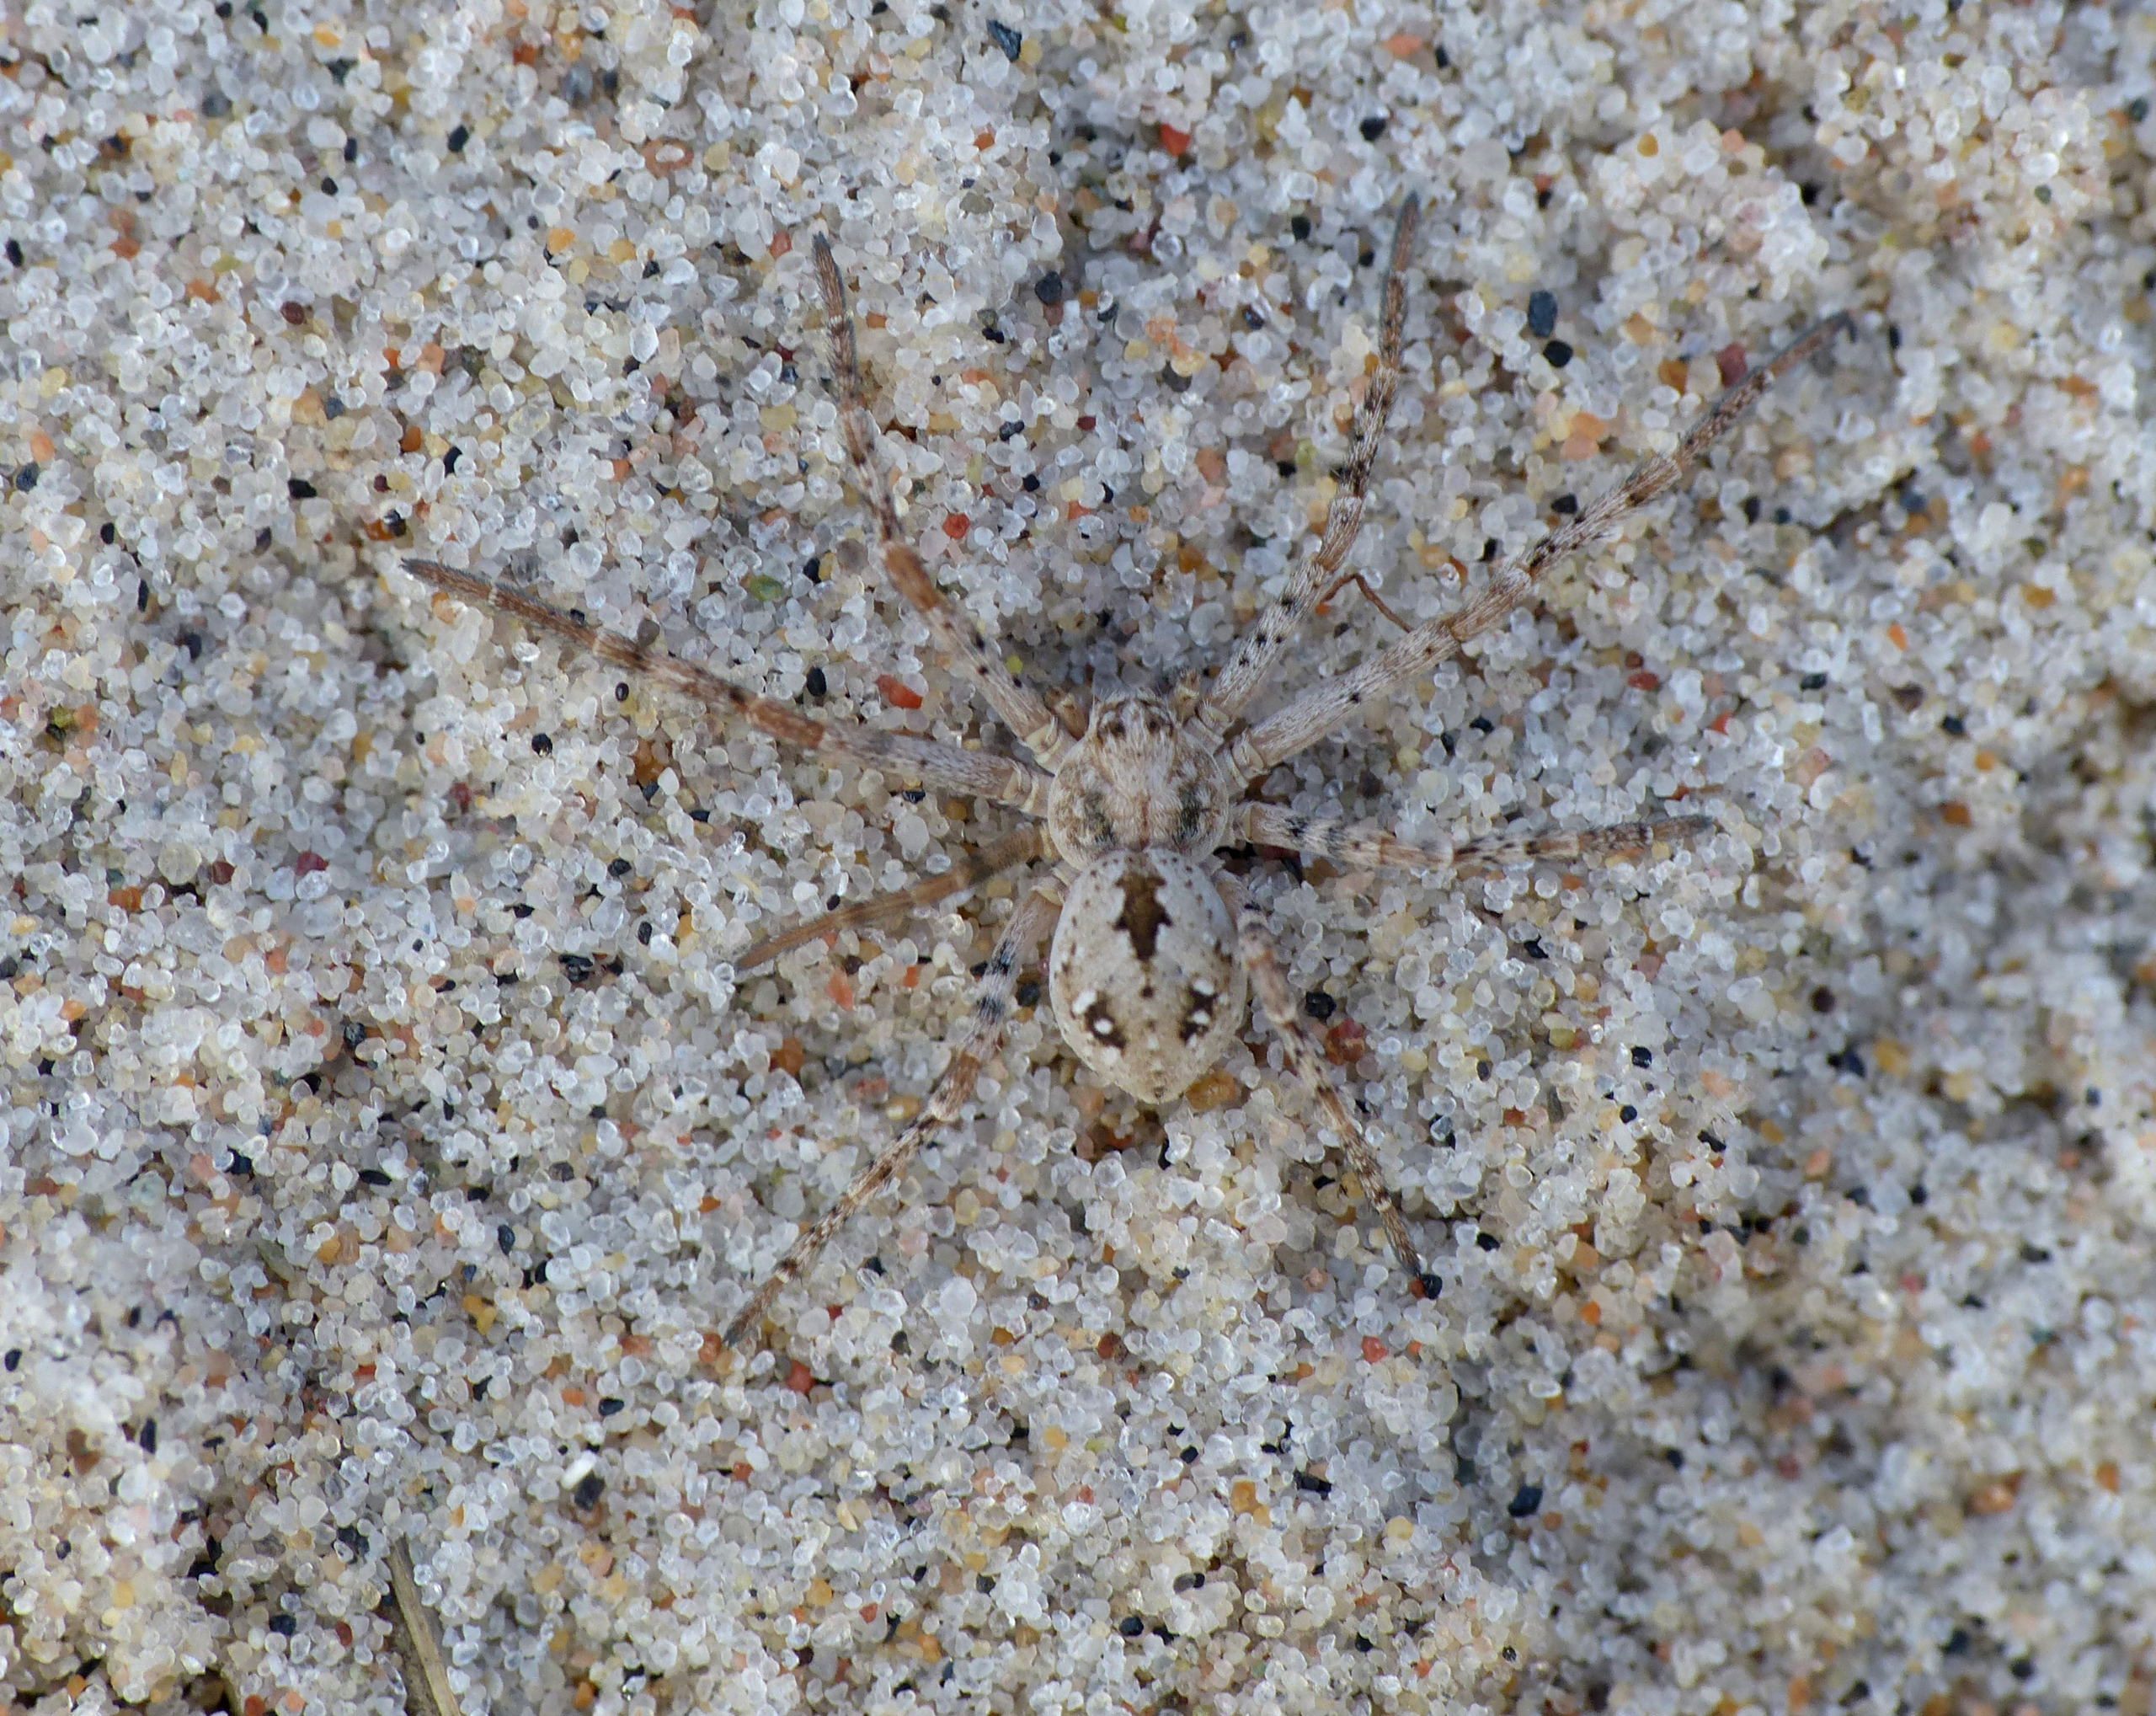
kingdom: Animalia
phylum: Arthropoda
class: Arachnida
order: Araneae
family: Philodromidae
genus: Rhysodromus
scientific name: Rhysodromus fallax
